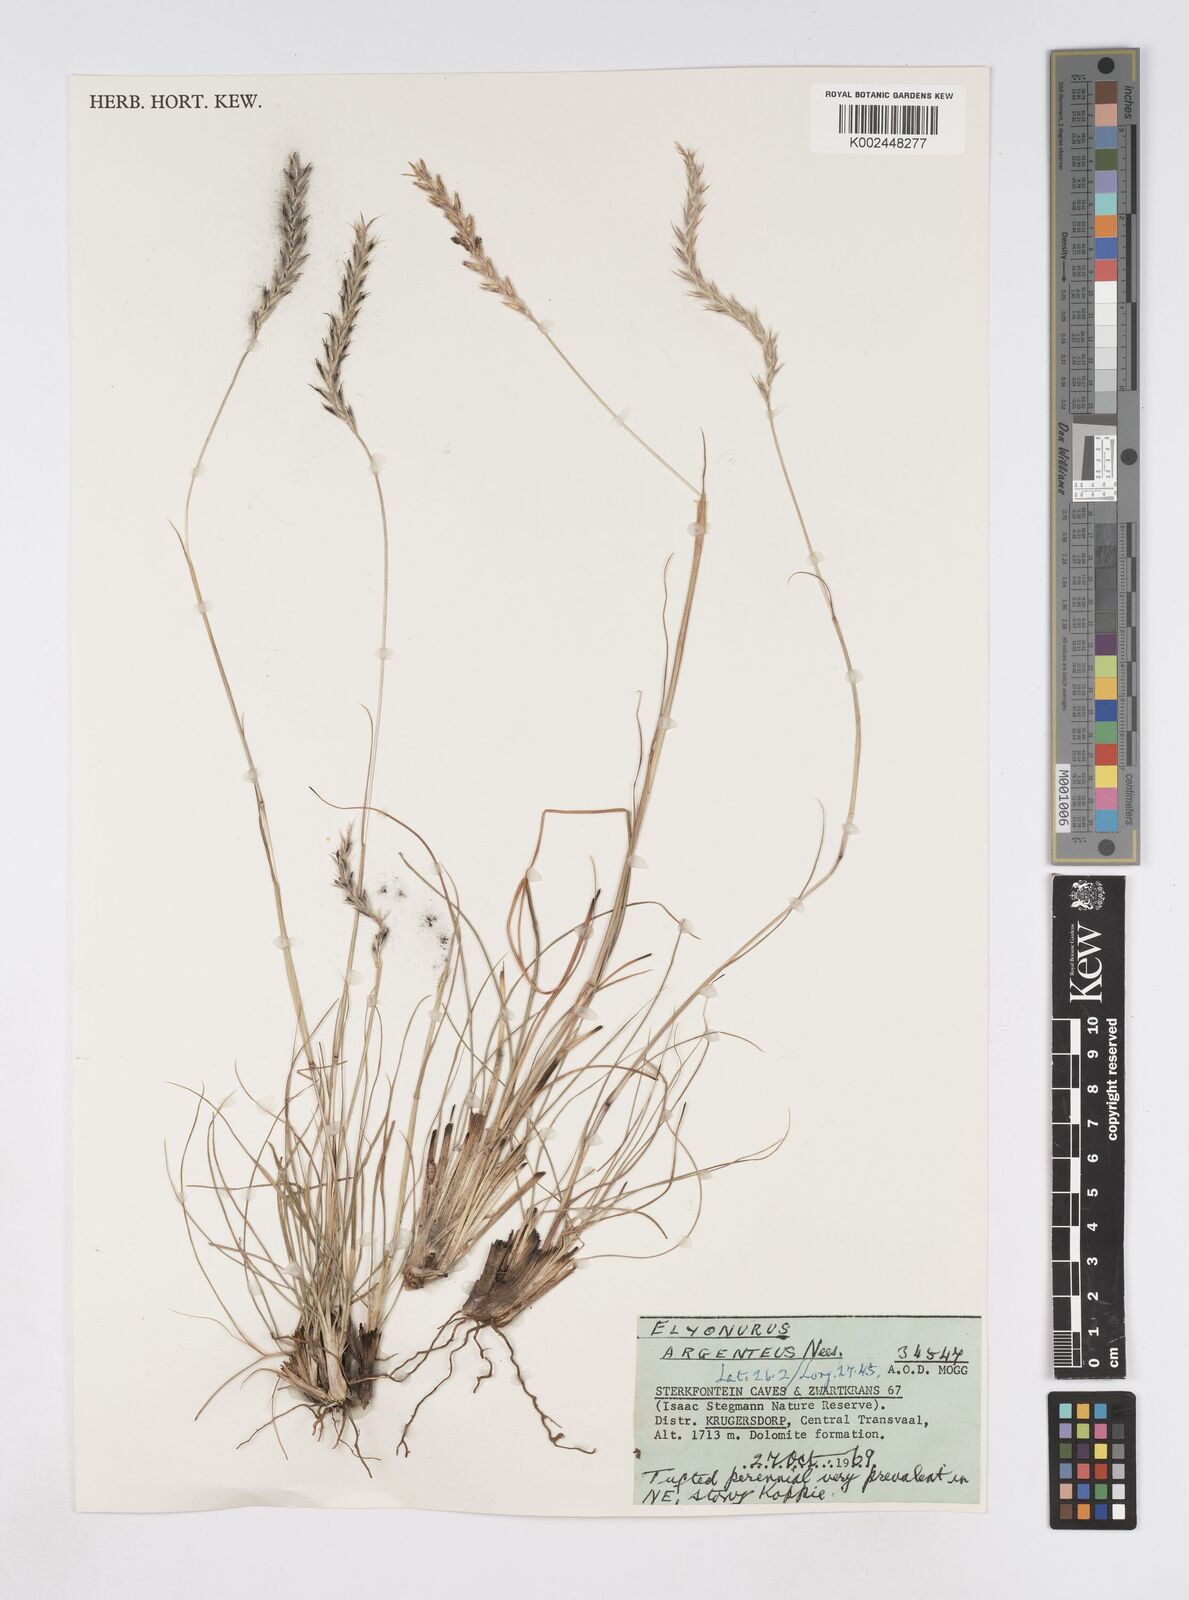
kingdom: Plantae
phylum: Tracheophyta
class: Liliopsida
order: Poales
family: Poaceae
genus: Elionurus
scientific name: Elionurus muticus
